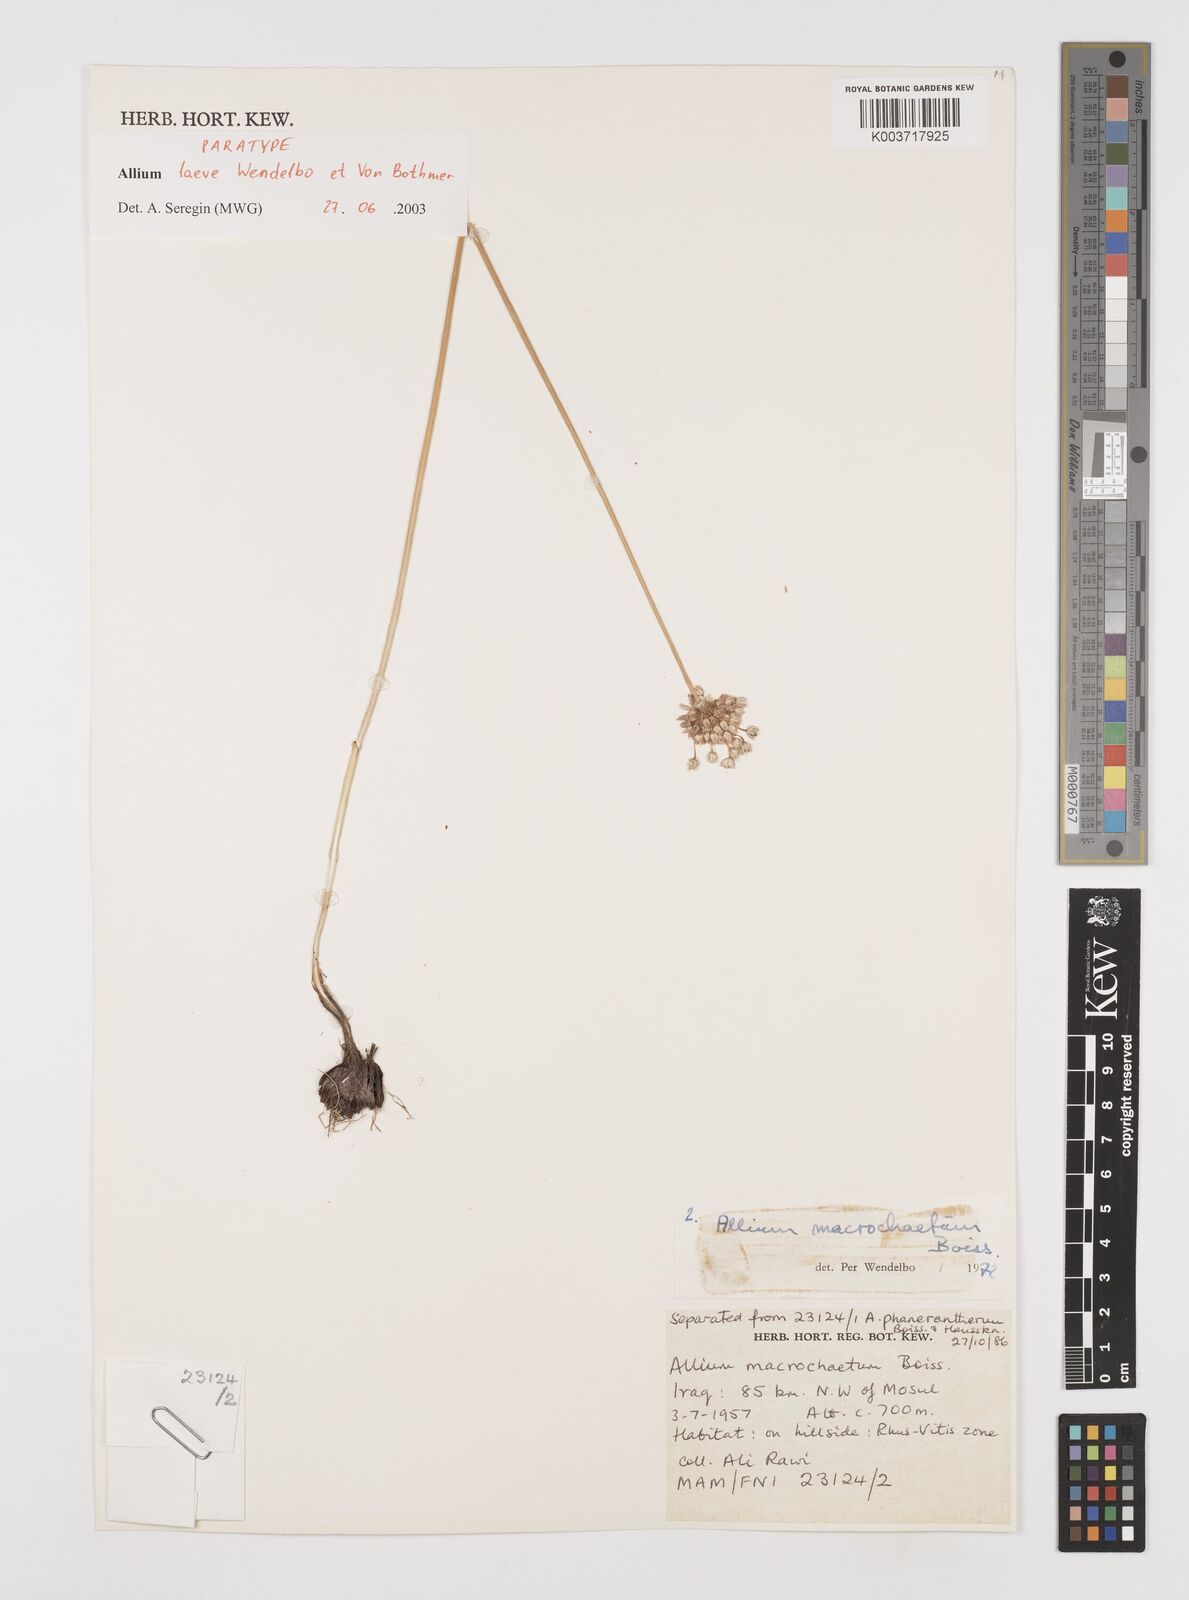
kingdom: Plantae
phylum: Tracheophyta
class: Liliopsida
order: Asparagales
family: Amaryllidaceae
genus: Allium
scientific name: Allium macrochaetum
